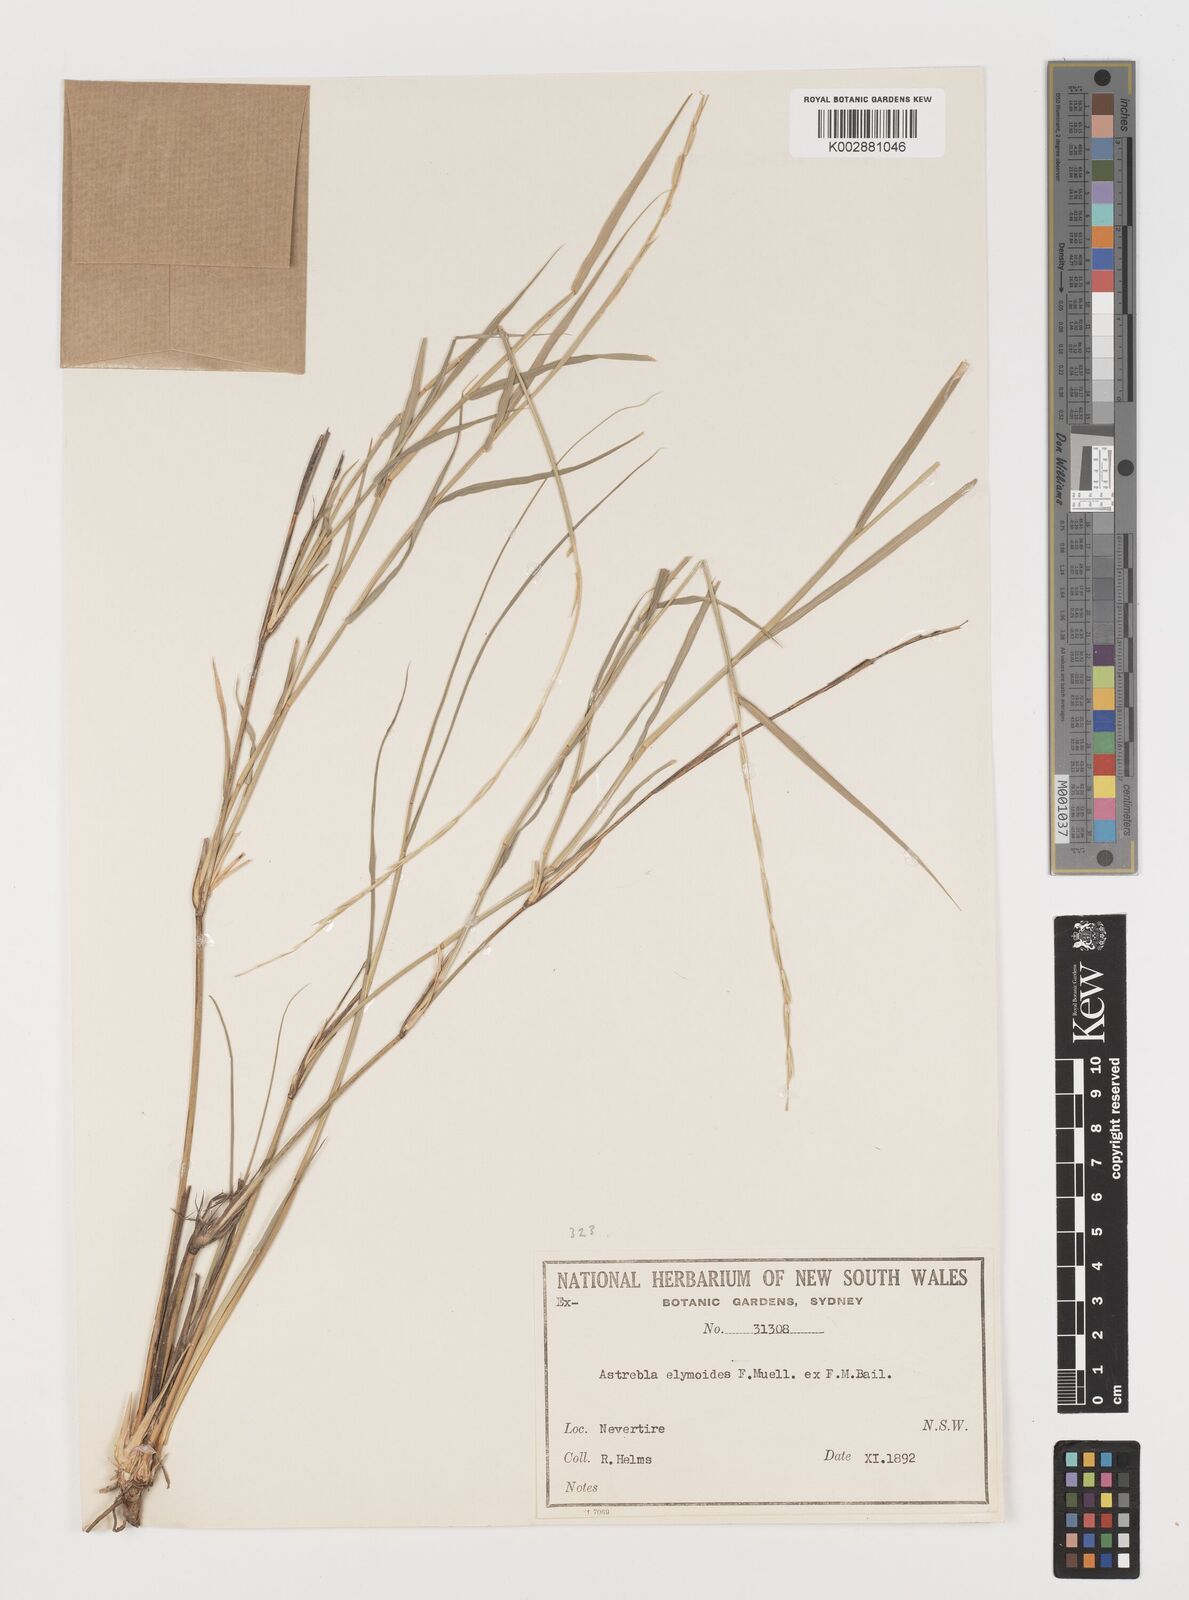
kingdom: Plantae
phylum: Tracheophyta
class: Liliopsida
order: Poales
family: Poaceae
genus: Astrebla
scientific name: Astrebla elymoides
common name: Hoop mitchell grass
